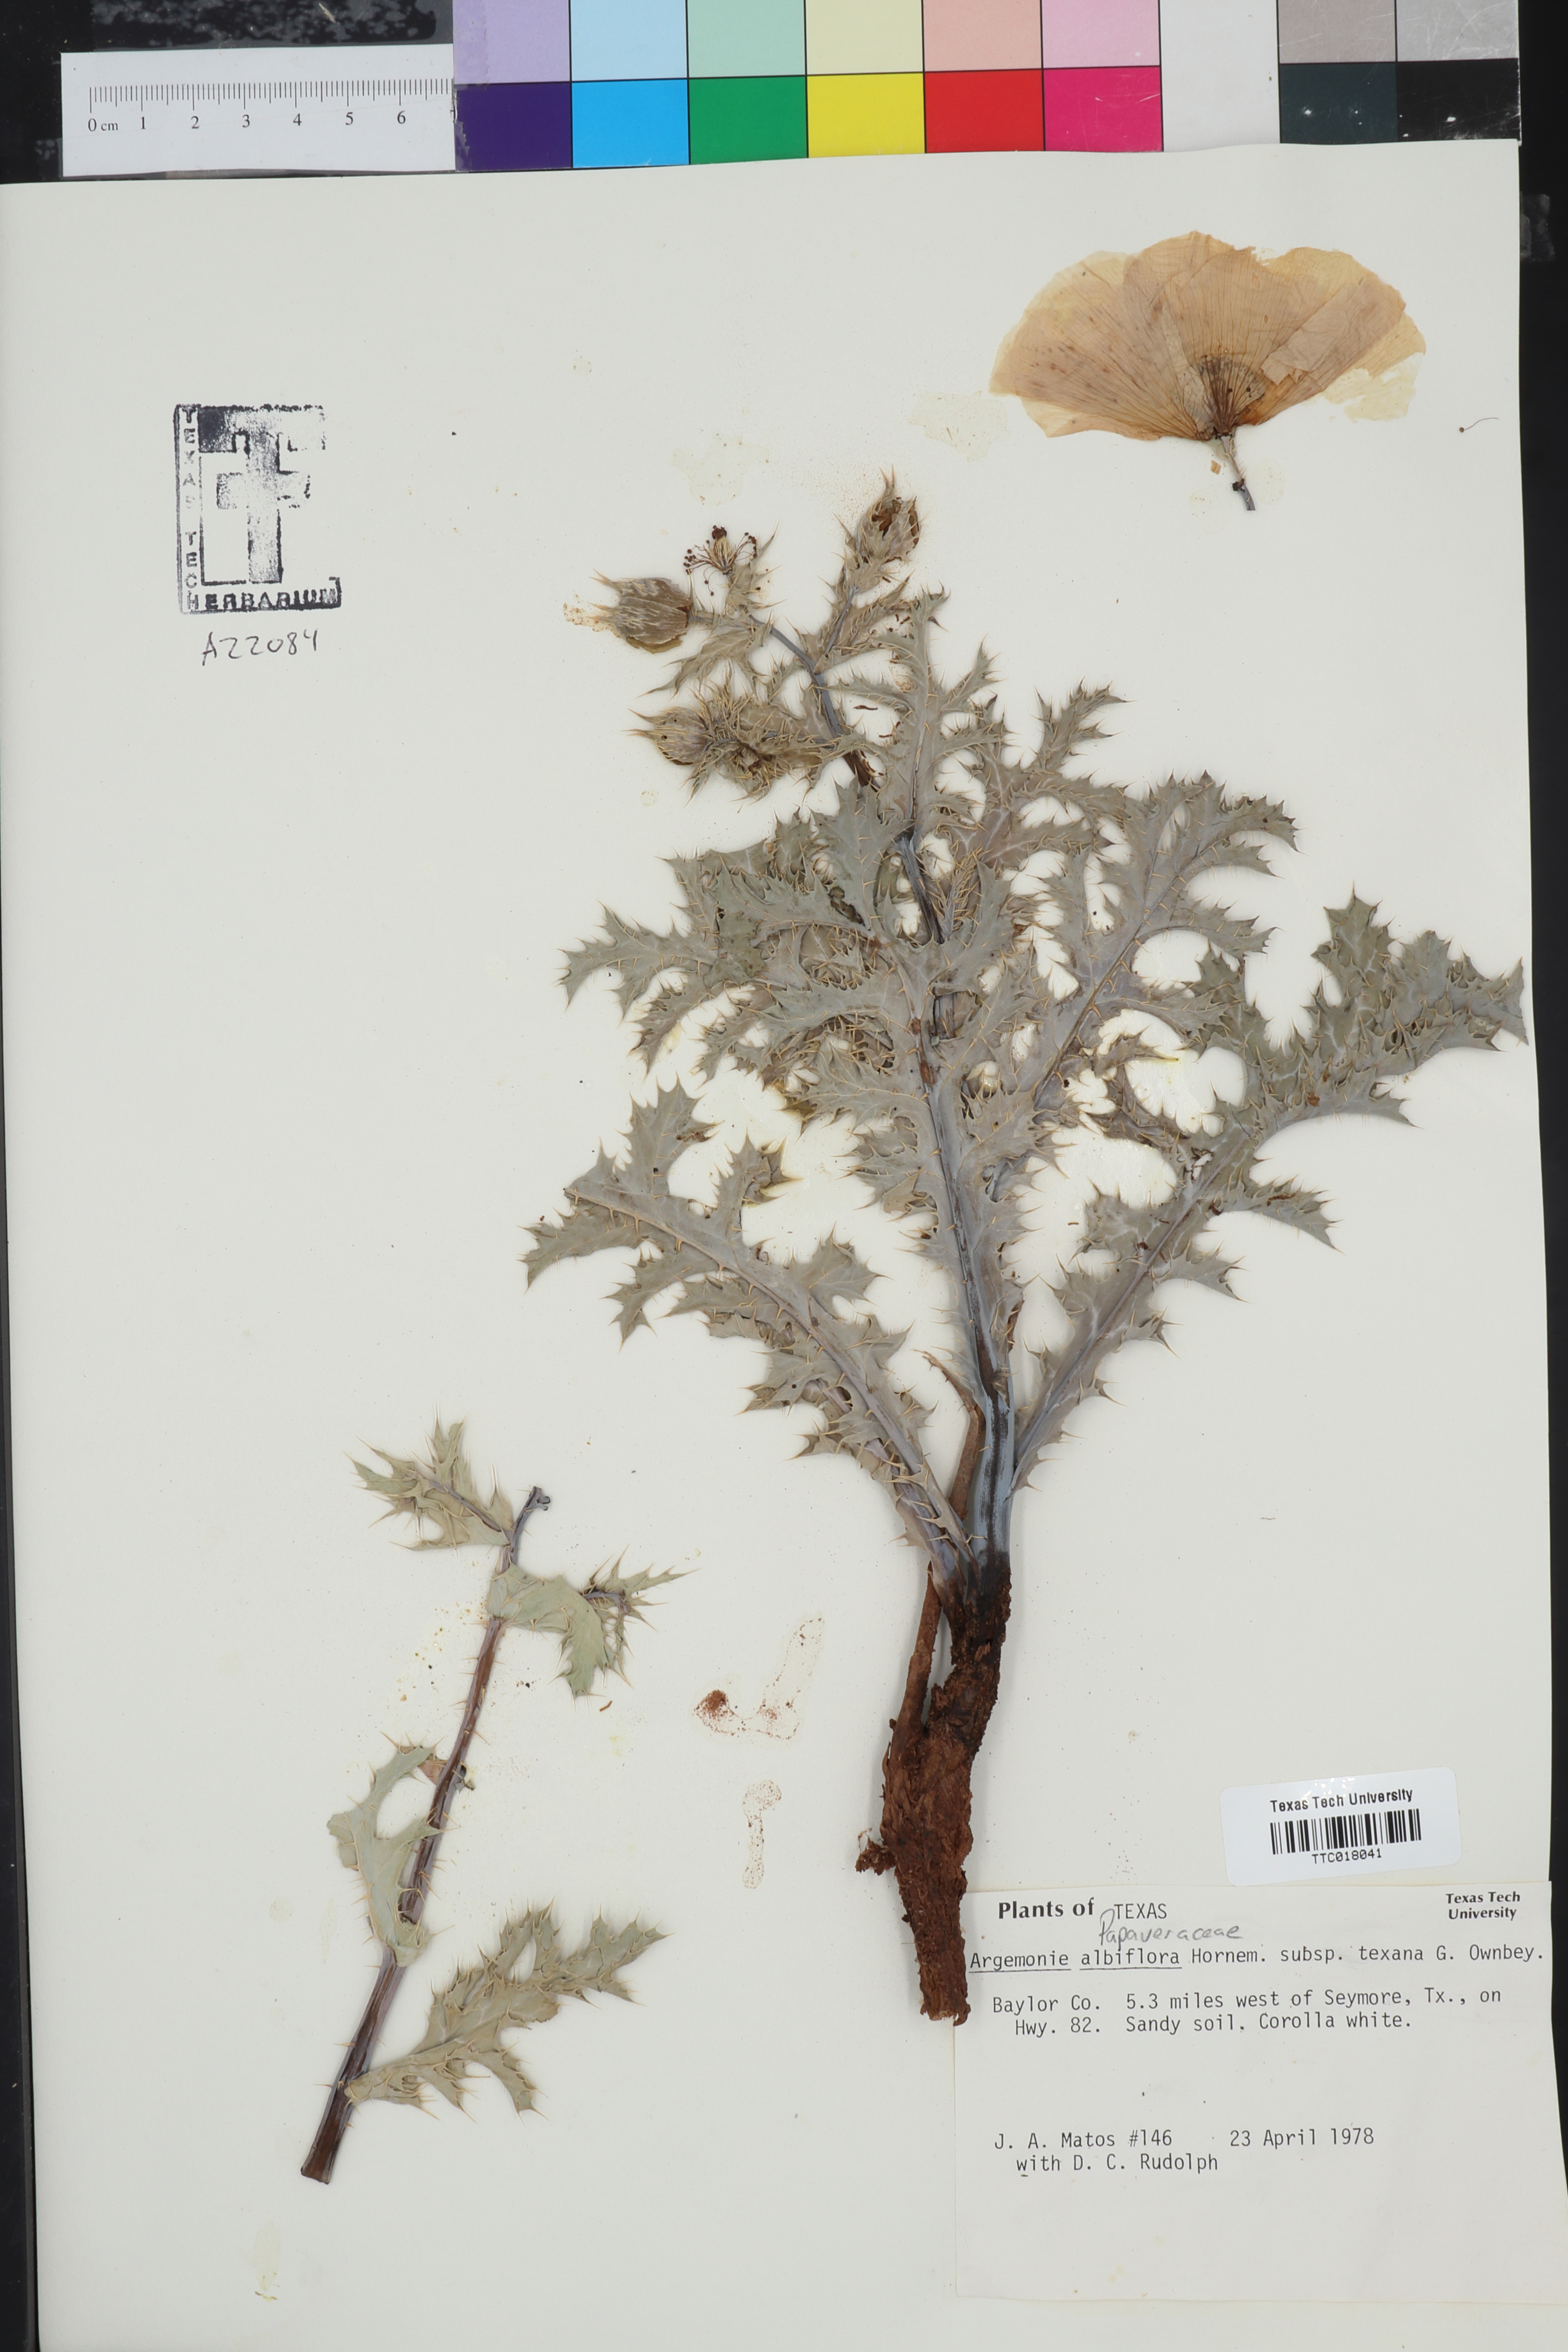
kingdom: Plantae
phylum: Tracheophyta
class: Magnoliopsida
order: Ranunculales
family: Papaveraceae
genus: Argemone
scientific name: Argemone albiflora
